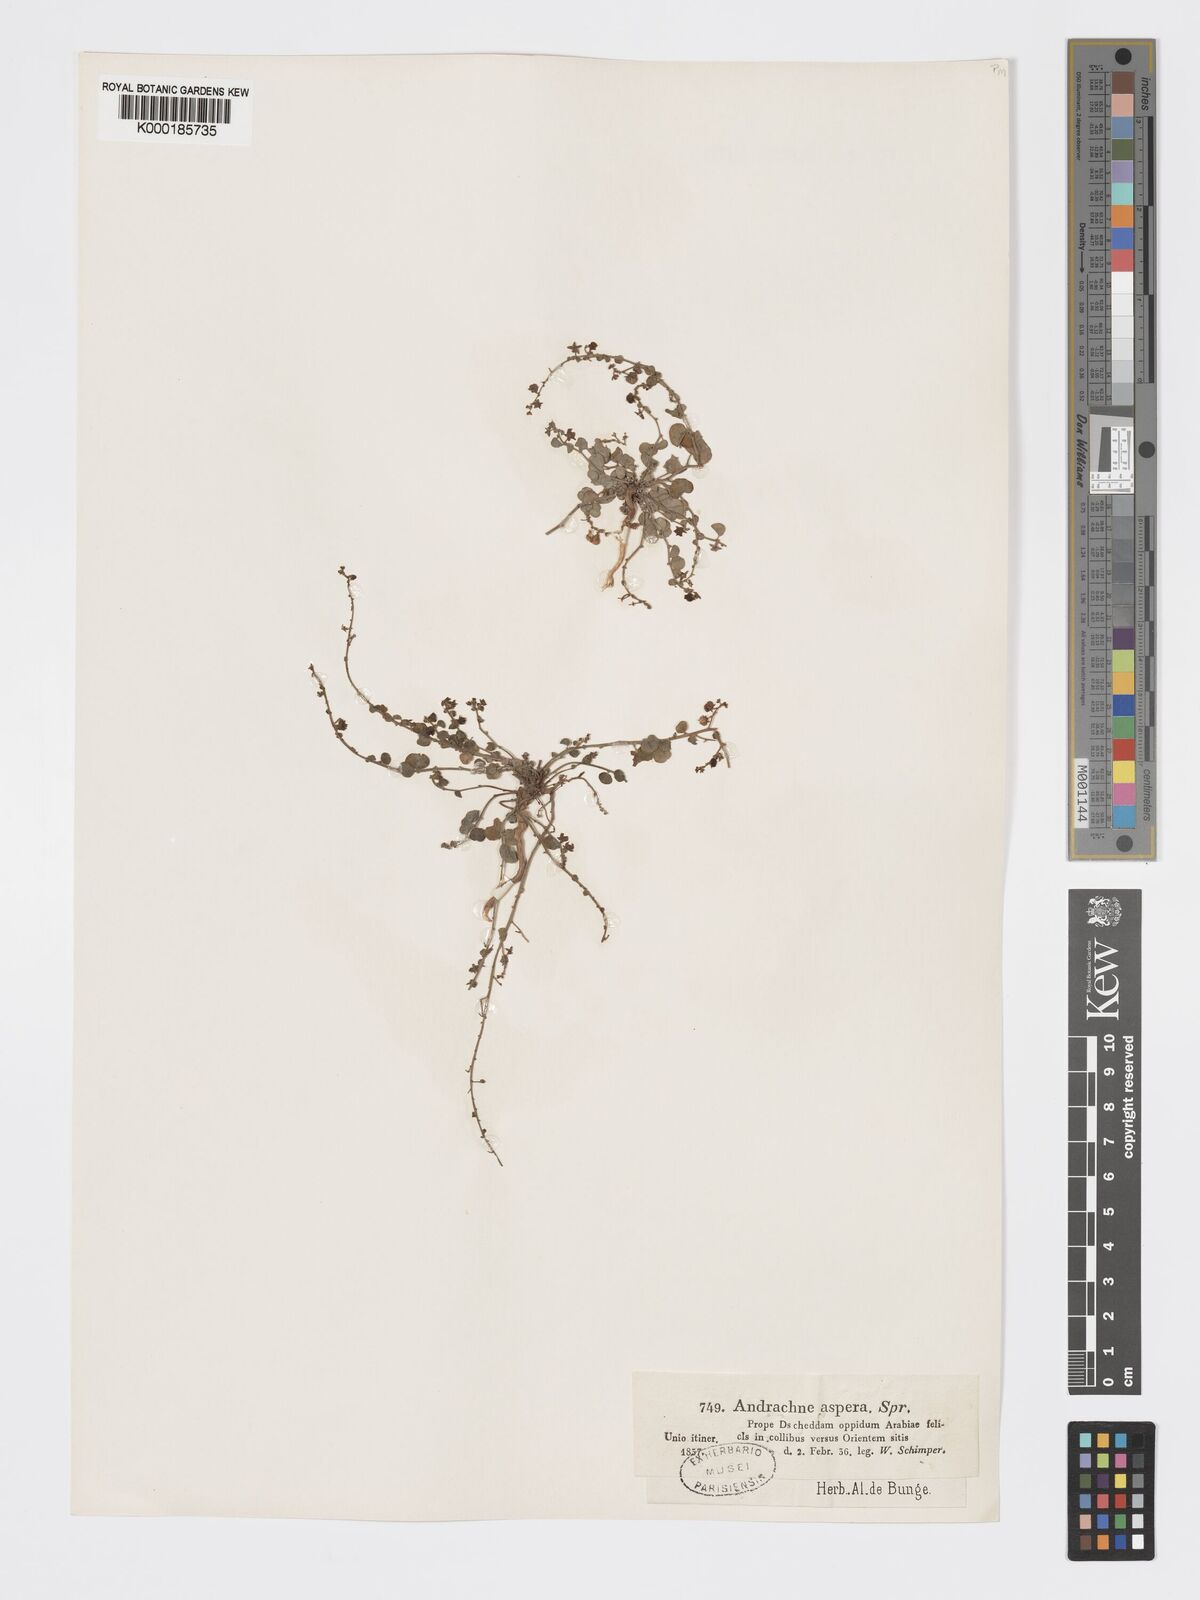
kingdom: Plantae
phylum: Tracheophyta
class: Magnoliopsida
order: Malpighiales
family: Phyllanthaceae
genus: Andrachne
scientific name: Andrachne aspera
